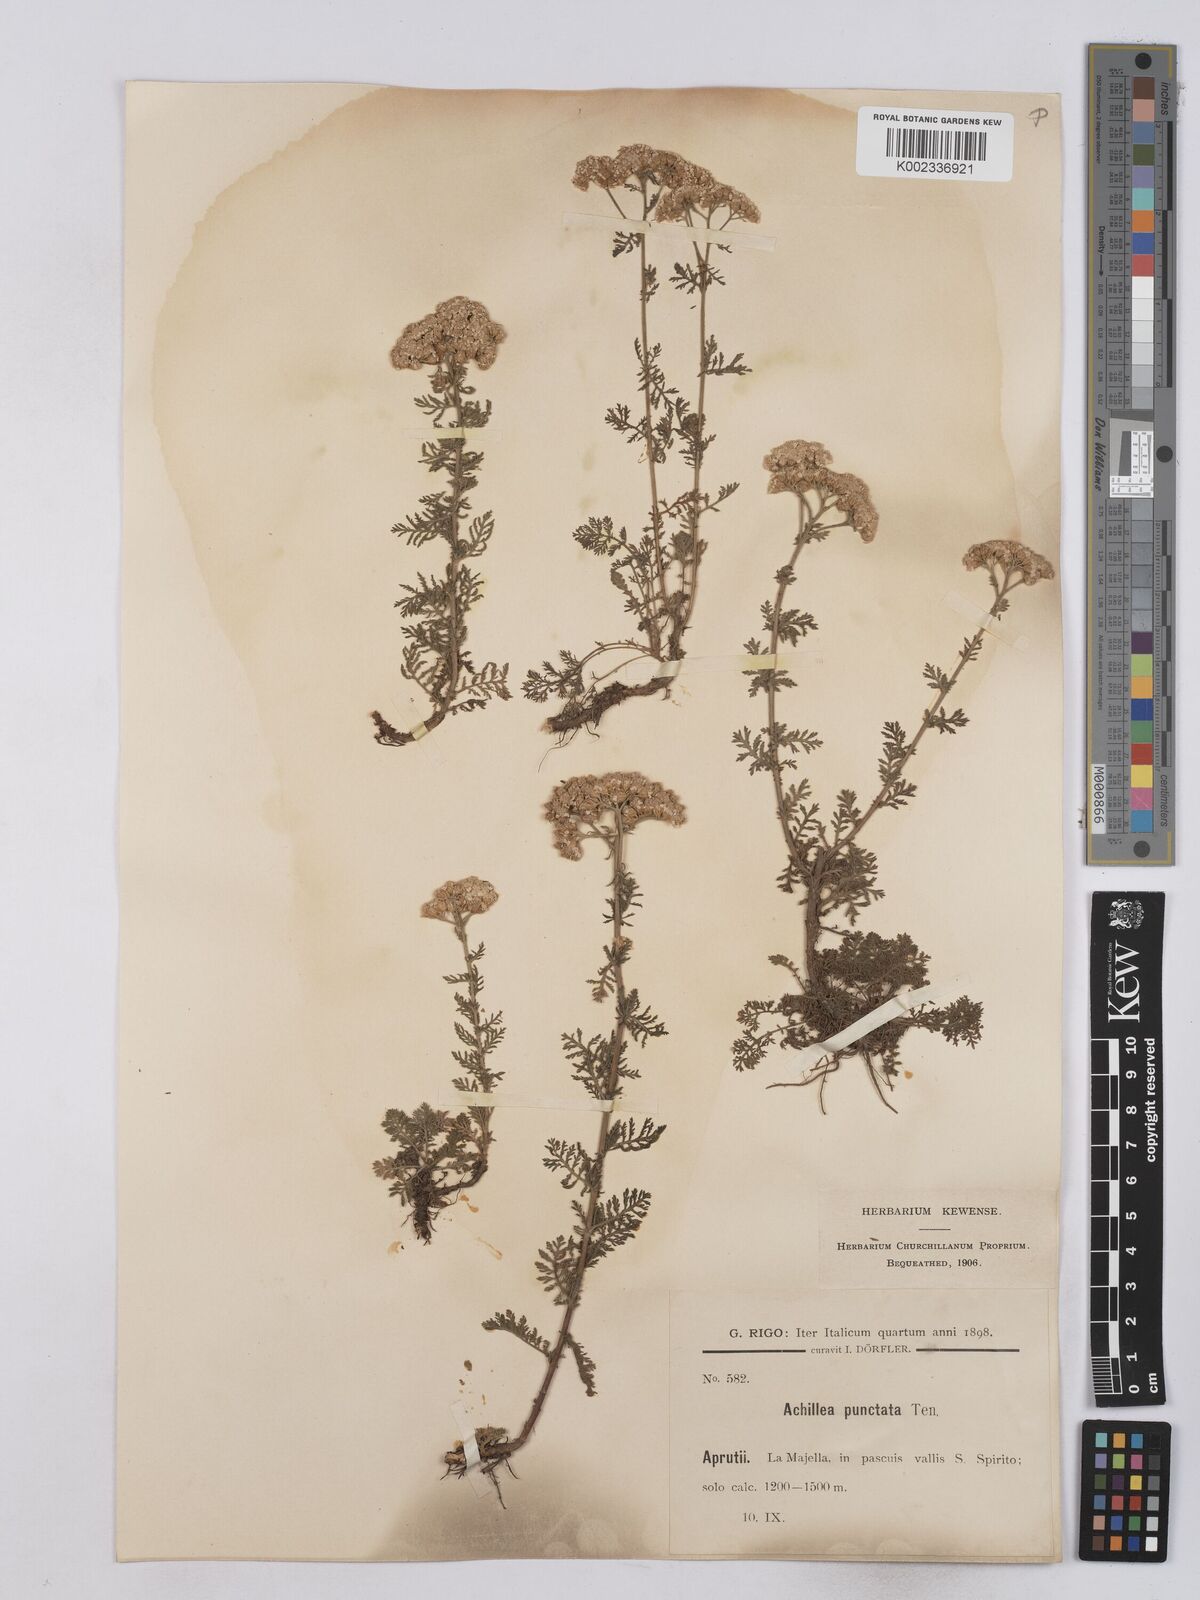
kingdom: Plantae
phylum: Tracheophyta
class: Magnoliopsida
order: Asterales
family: Asteraceae
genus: Achillea
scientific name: Achillea odorata
